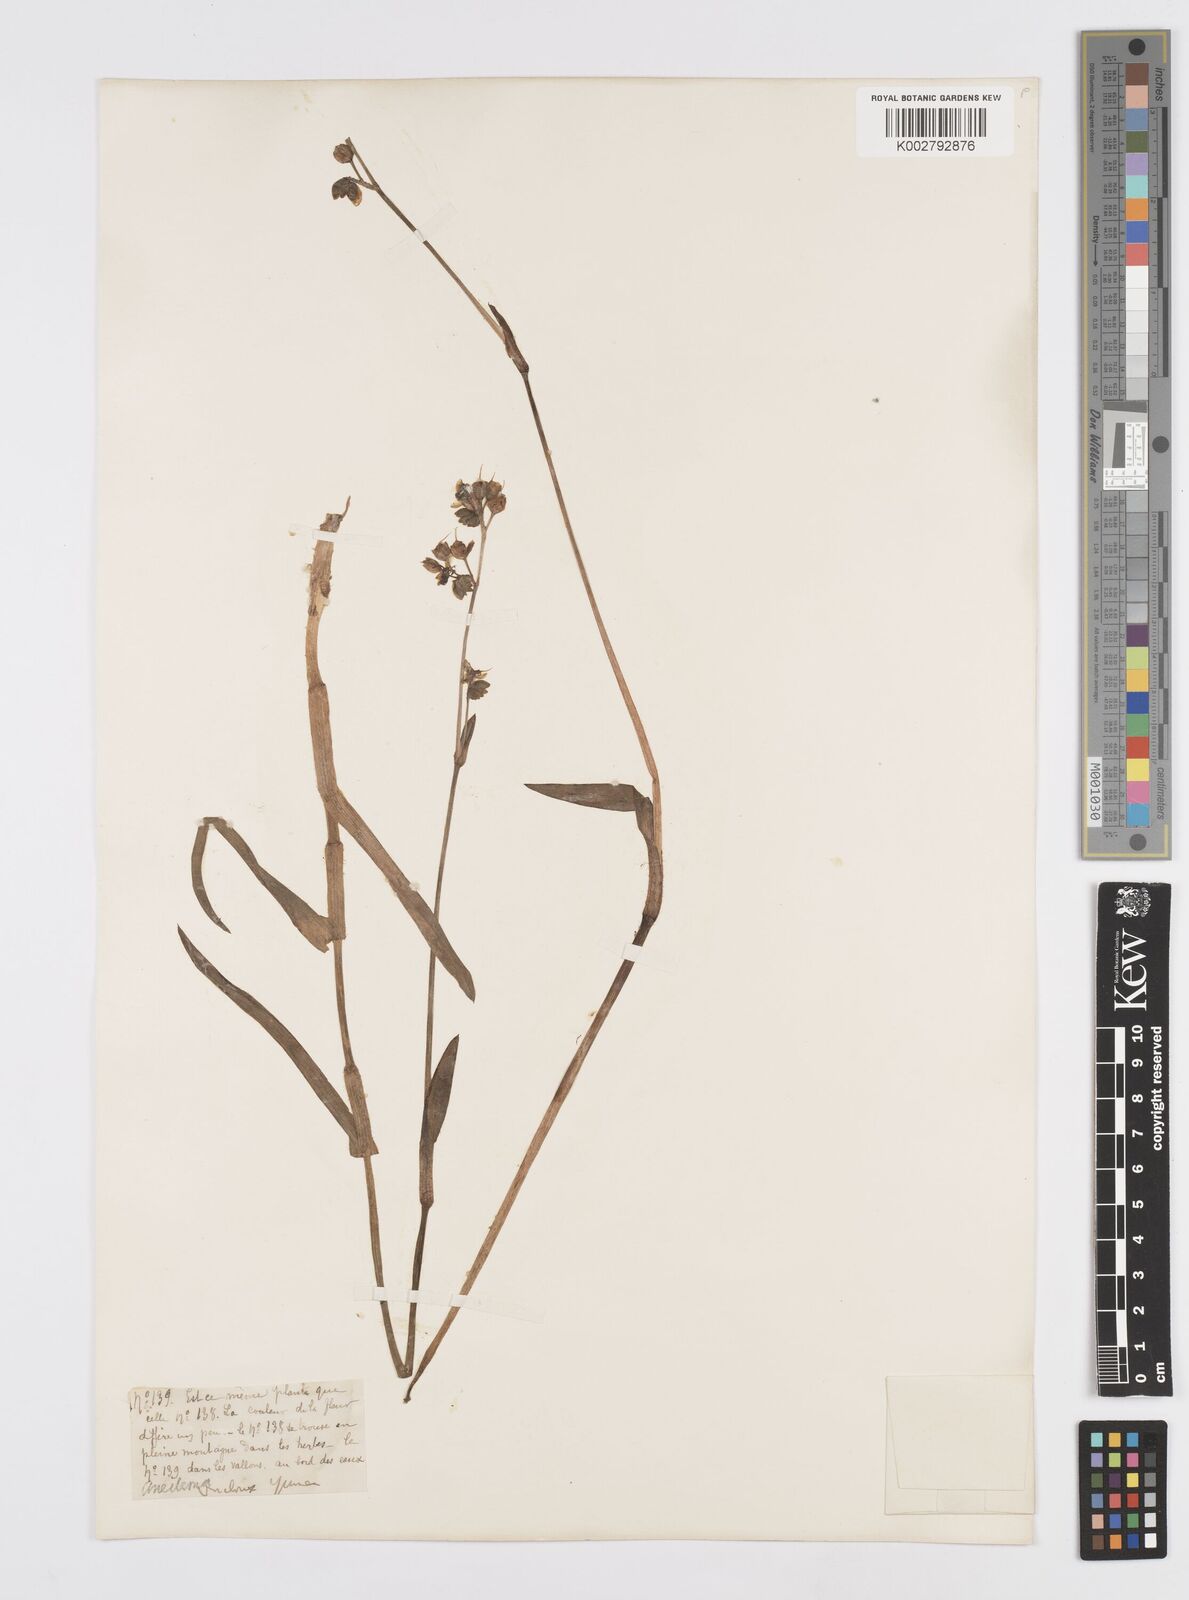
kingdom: Plantae
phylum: Tracheophyta
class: Liliopsida
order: Commelinales
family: Commelinaceae
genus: Murdannia
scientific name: Murdannia
